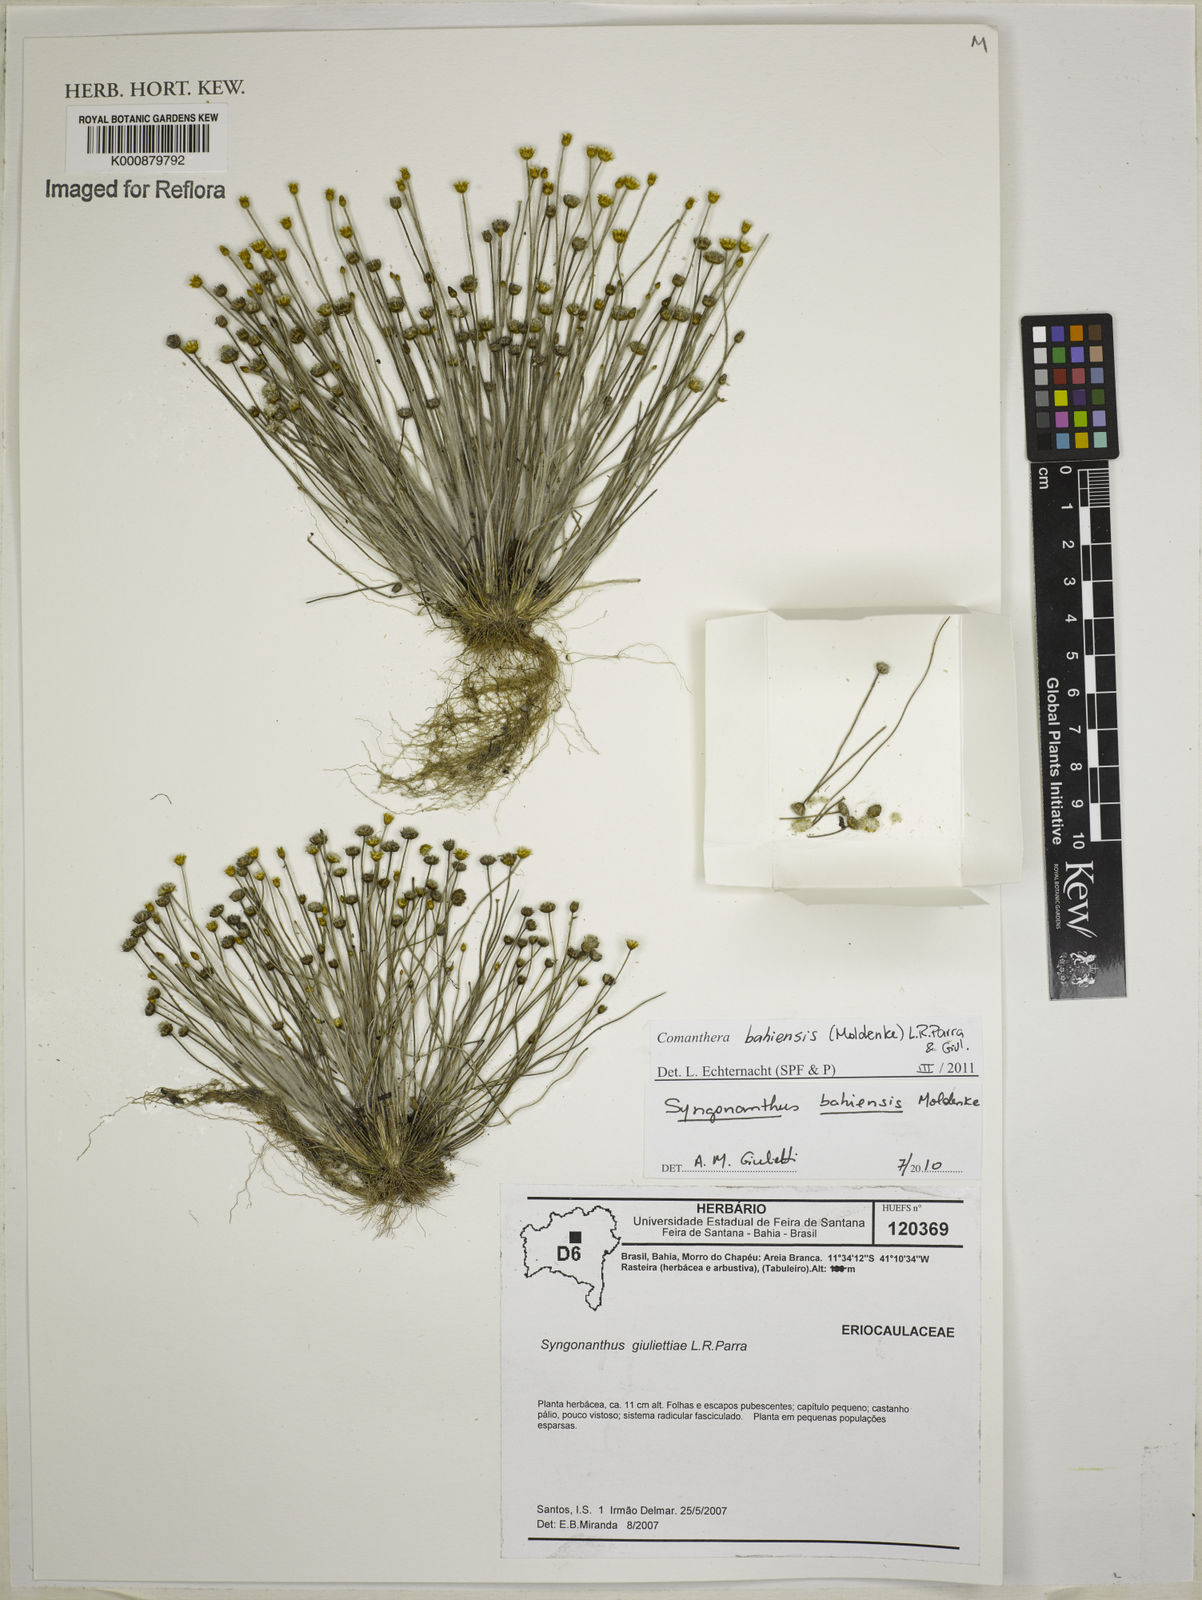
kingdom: Plantae
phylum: Tracheophyta
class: Liliopsida
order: Poales
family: Eriocaulaceae
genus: Comanthera
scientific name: Comanthera bahiensis
